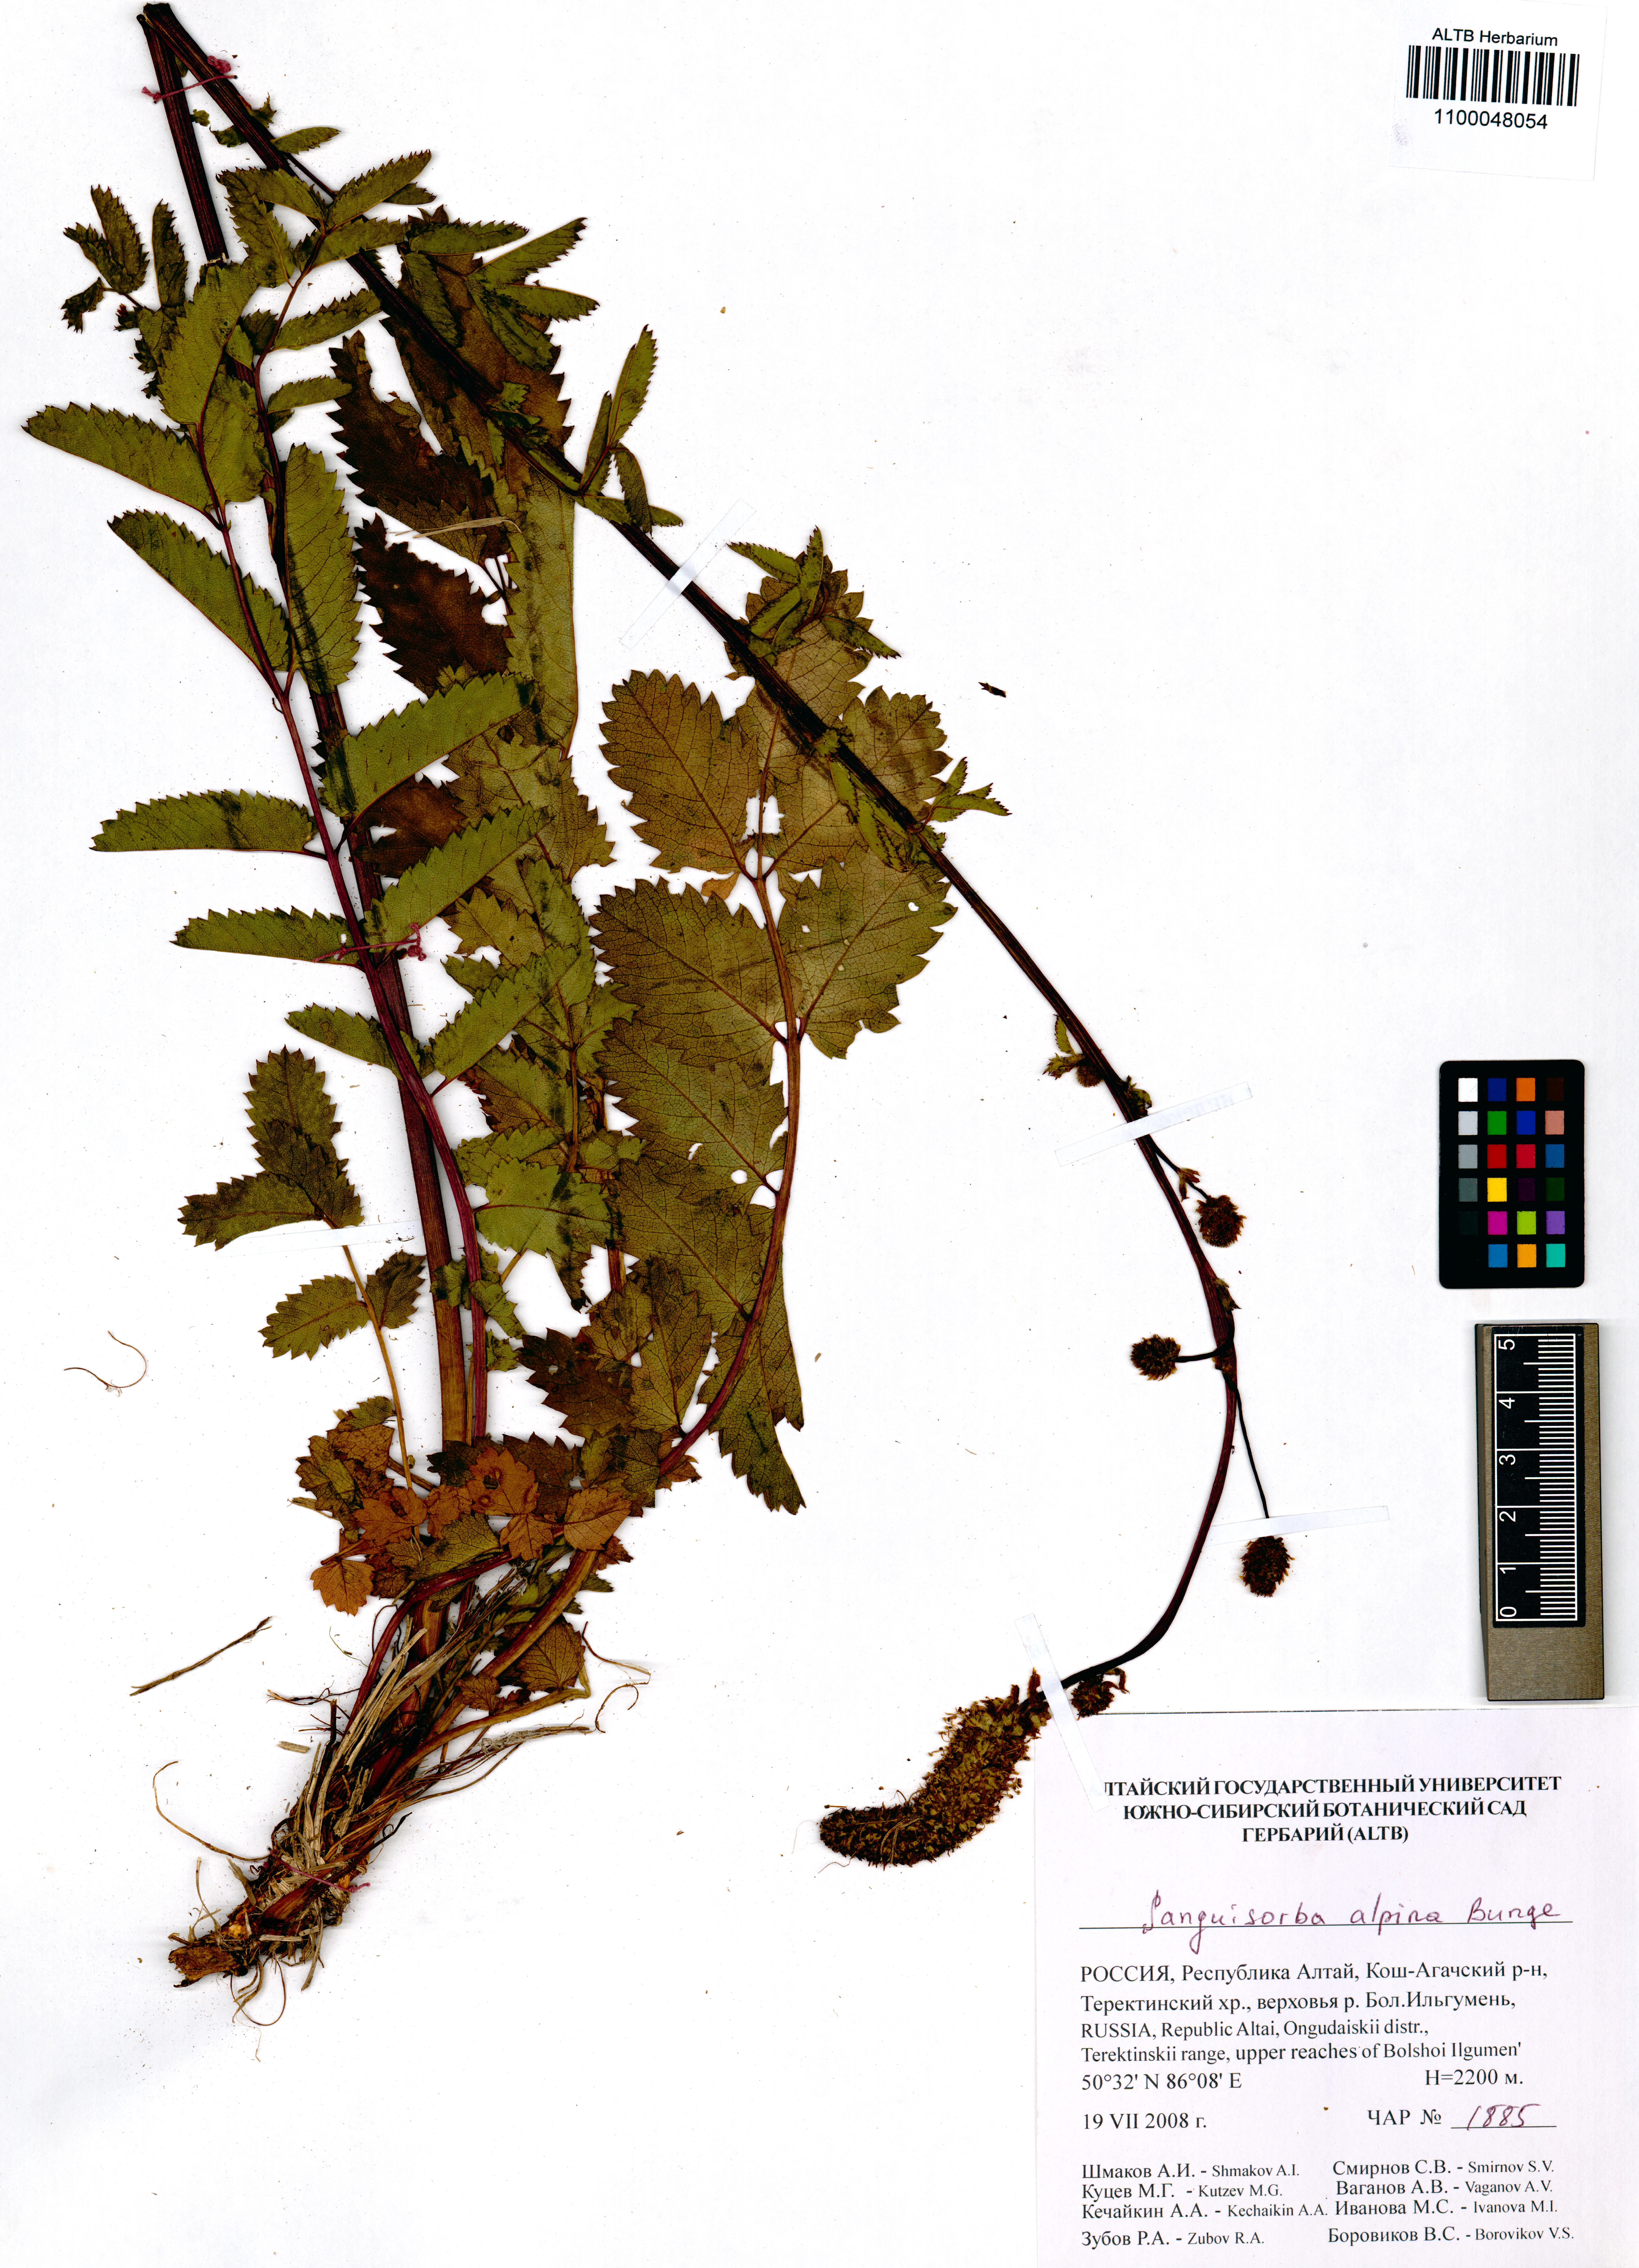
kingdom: Plantae
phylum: Tracheophyta
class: Magnoliopsida
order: Rosales
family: Rosaceae
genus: Sanguisorba
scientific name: Sanguisorba alpina
